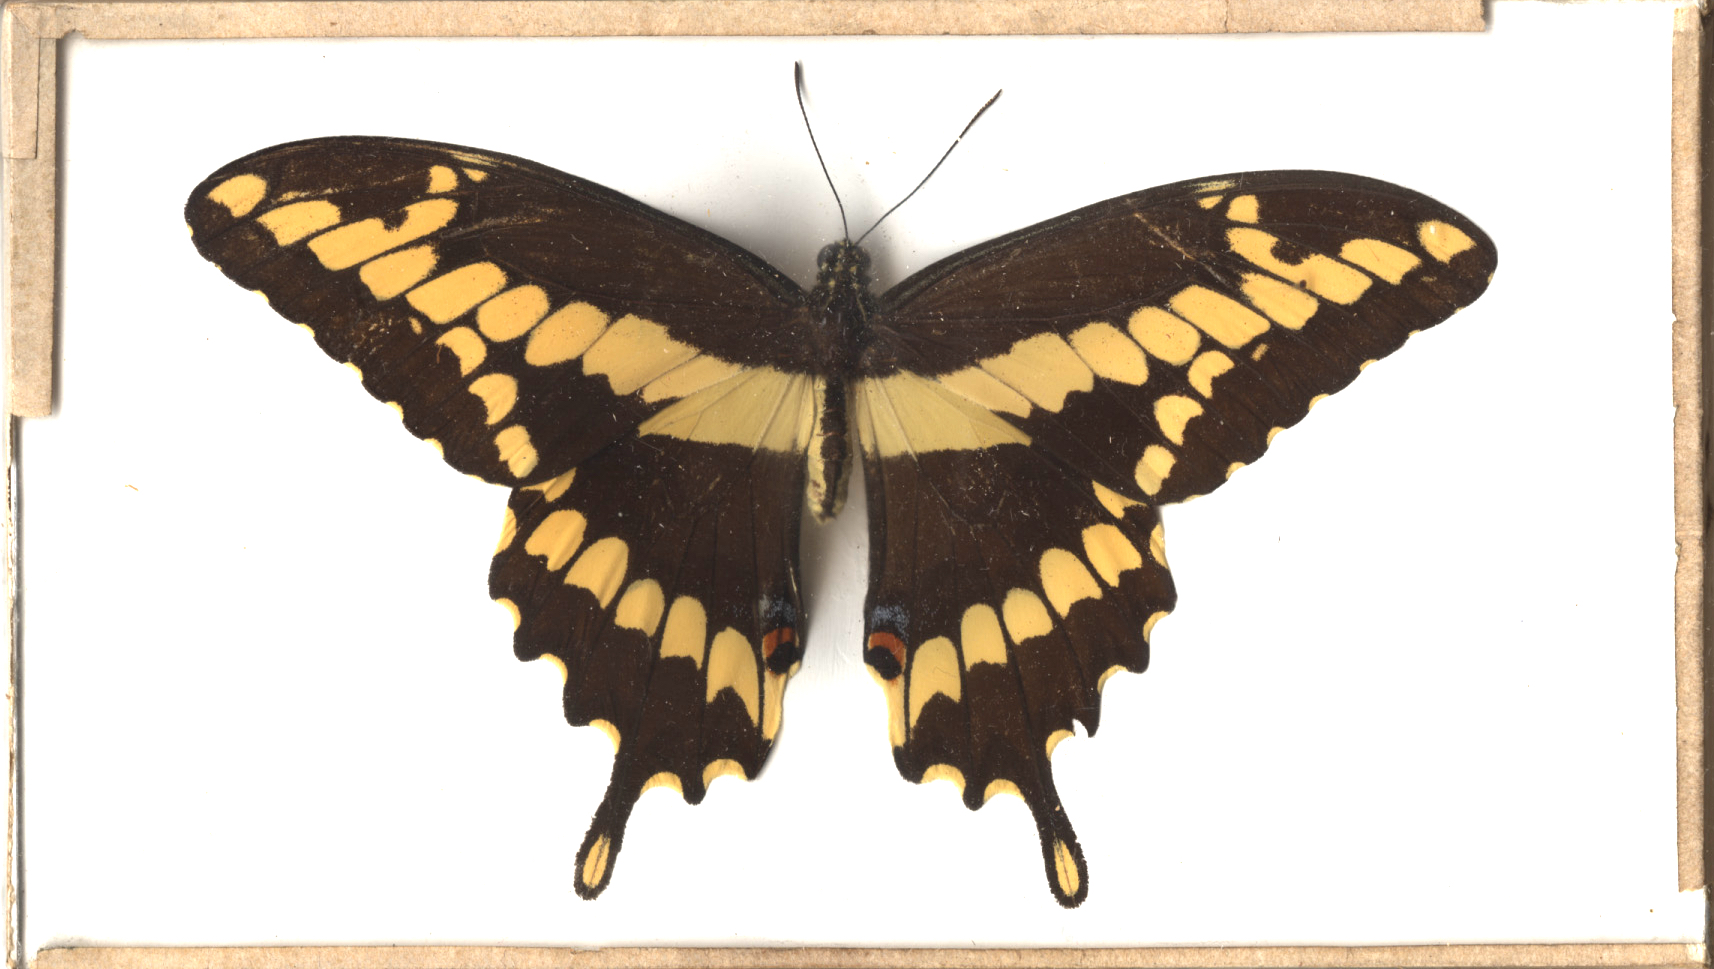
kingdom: Animalia
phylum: Arthropoda
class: Insecta
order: Lepidoptera
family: Papilionidae
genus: Papilio
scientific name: Papilio cresphontes
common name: Giant Swallowtail
